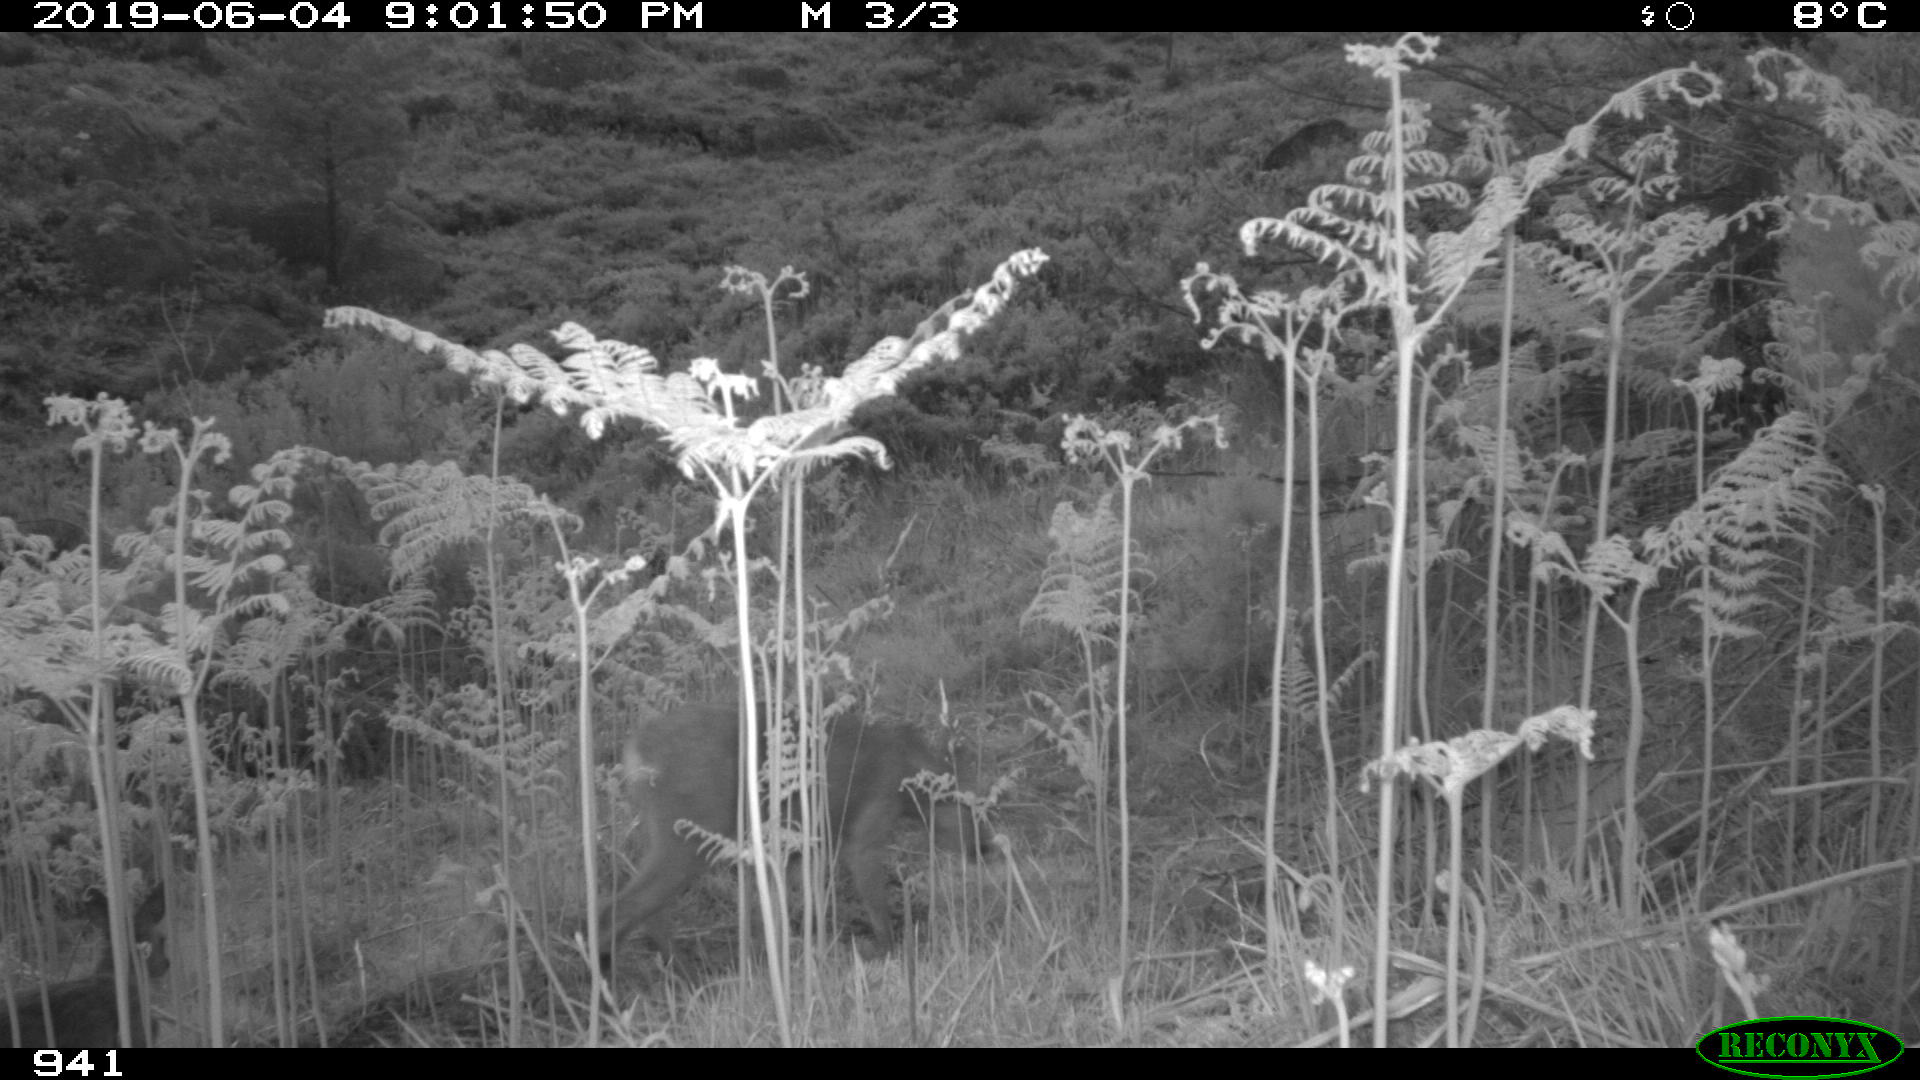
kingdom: Animalia
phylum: Chordata
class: Mammalia
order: Artiodactyla
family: Cervidae
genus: Capreolus
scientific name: Capreolus capreolus
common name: Western roe deer
